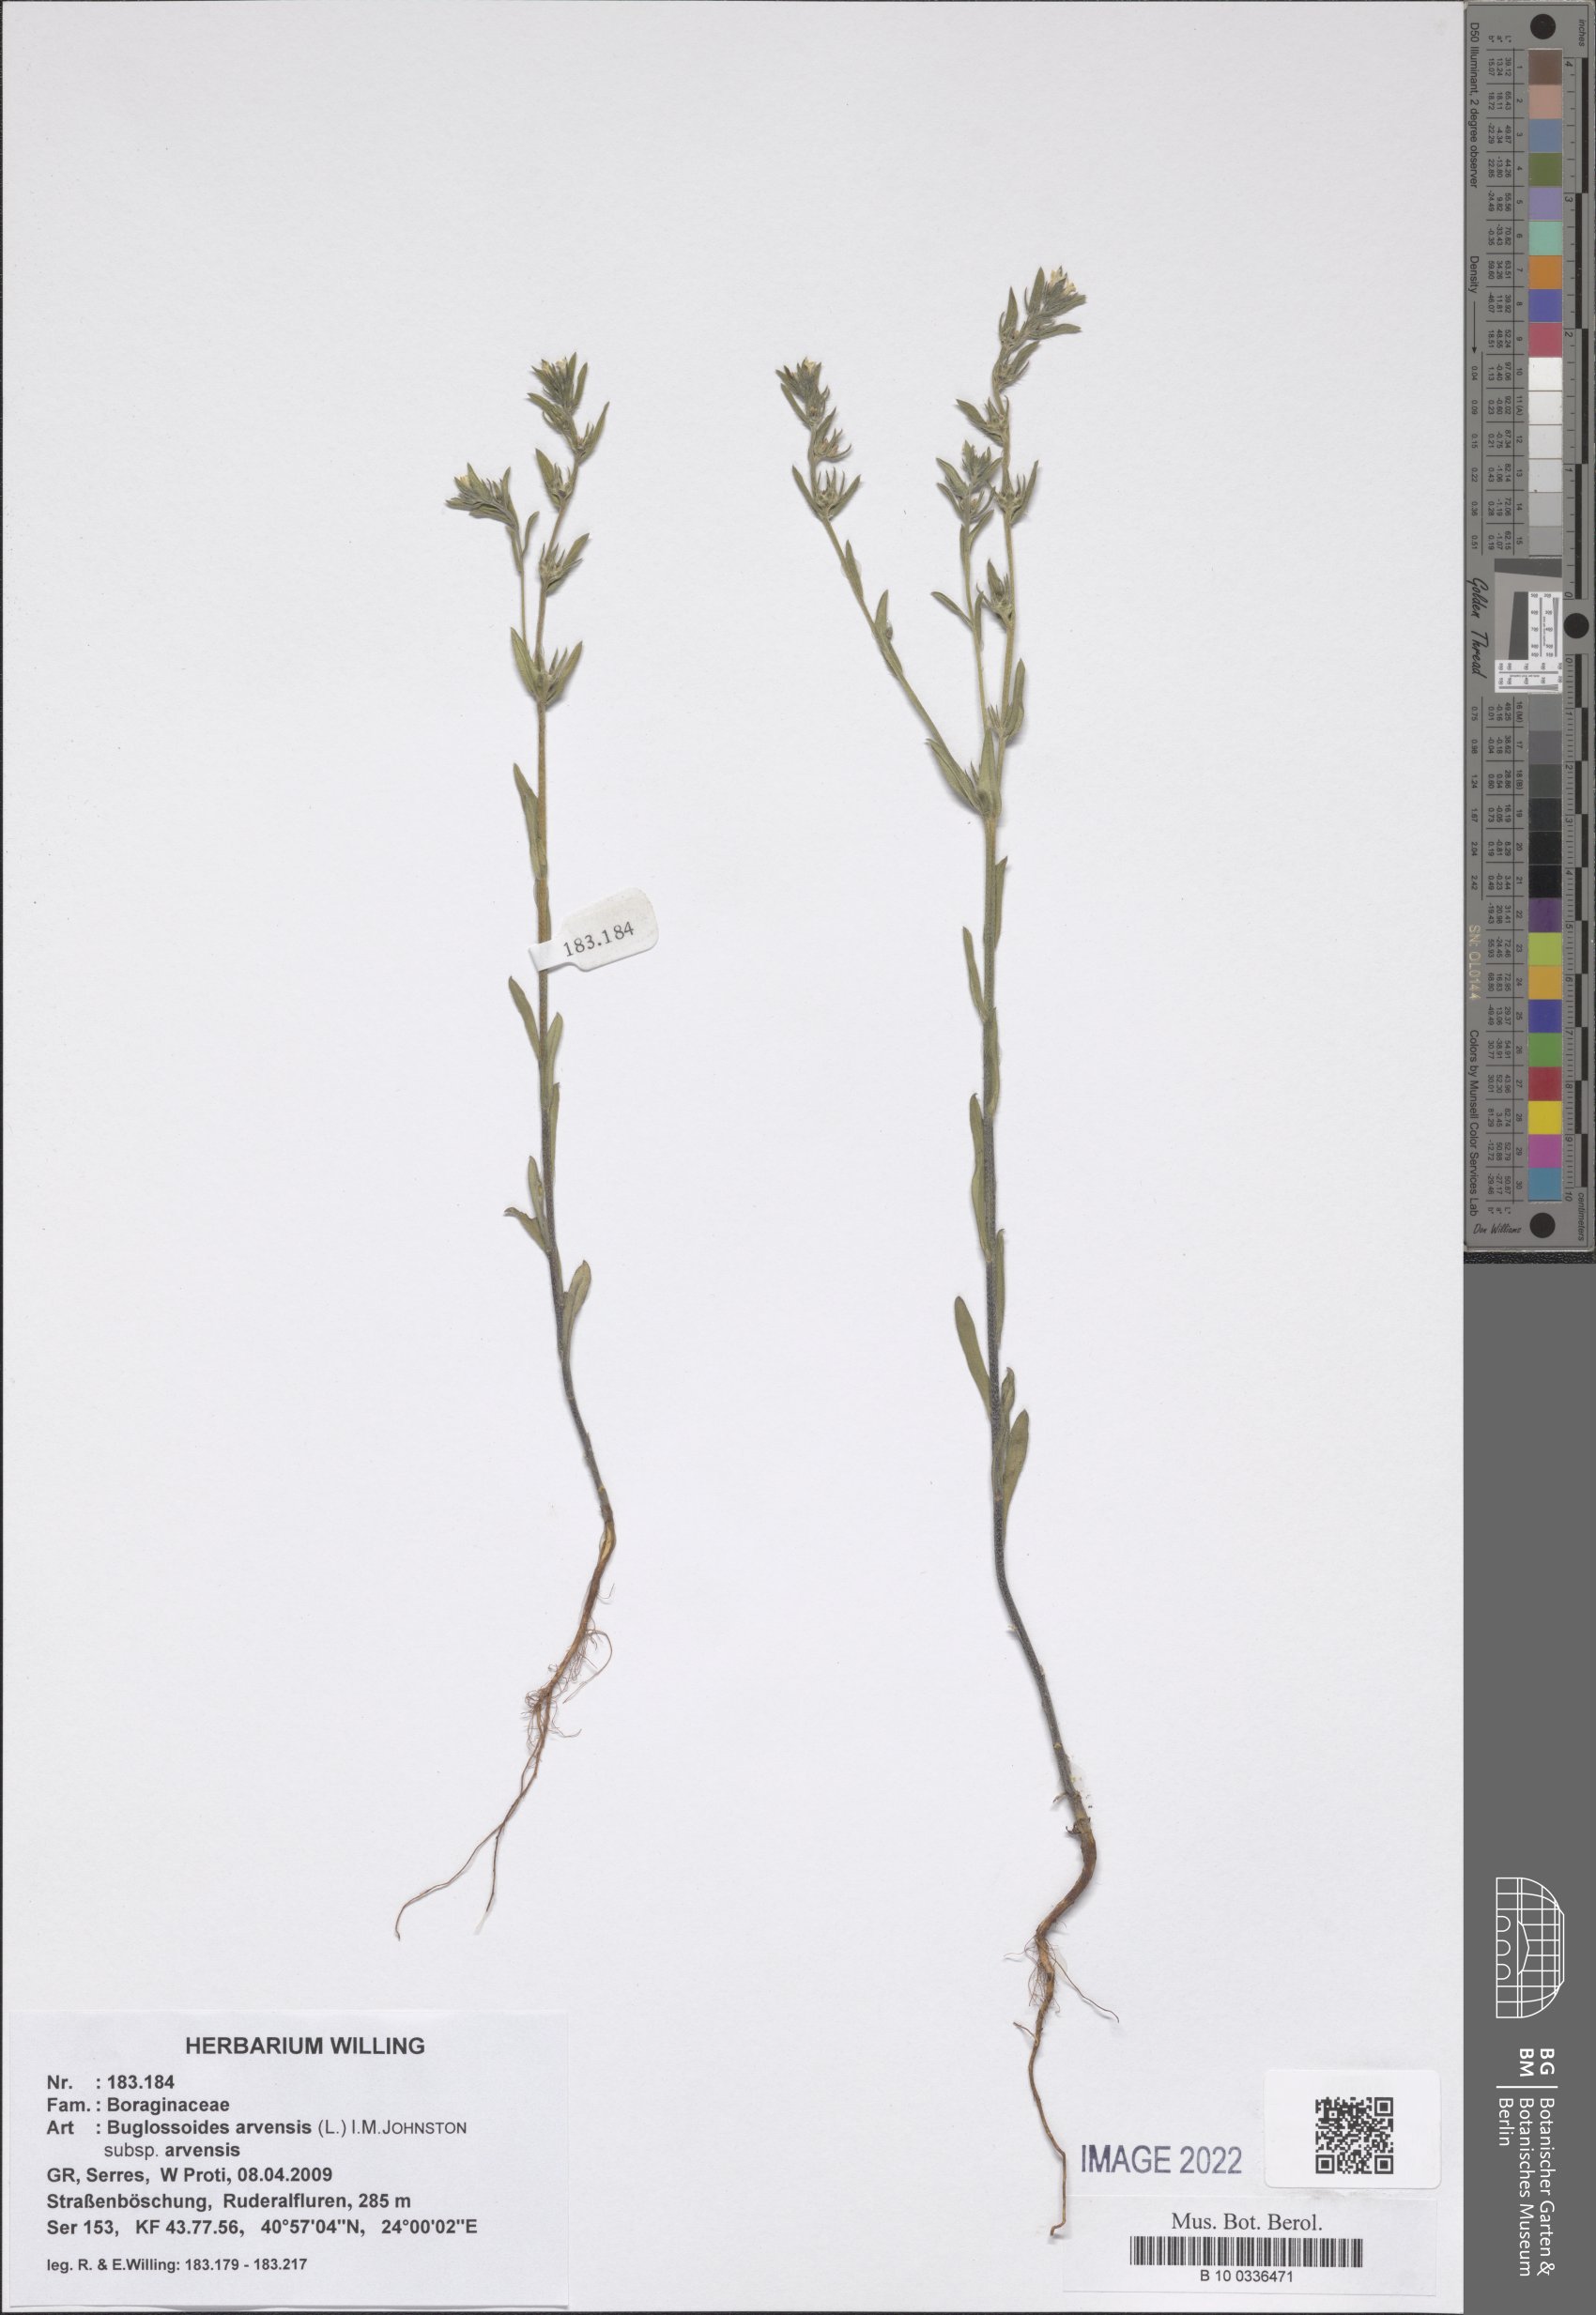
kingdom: Plantae
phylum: Tracheophyta
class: Magnoliopsida
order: Boraginales
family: Boraginaceae
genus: Buglossoides
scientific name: Buglossoides arvensis
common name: Corn gromwell
